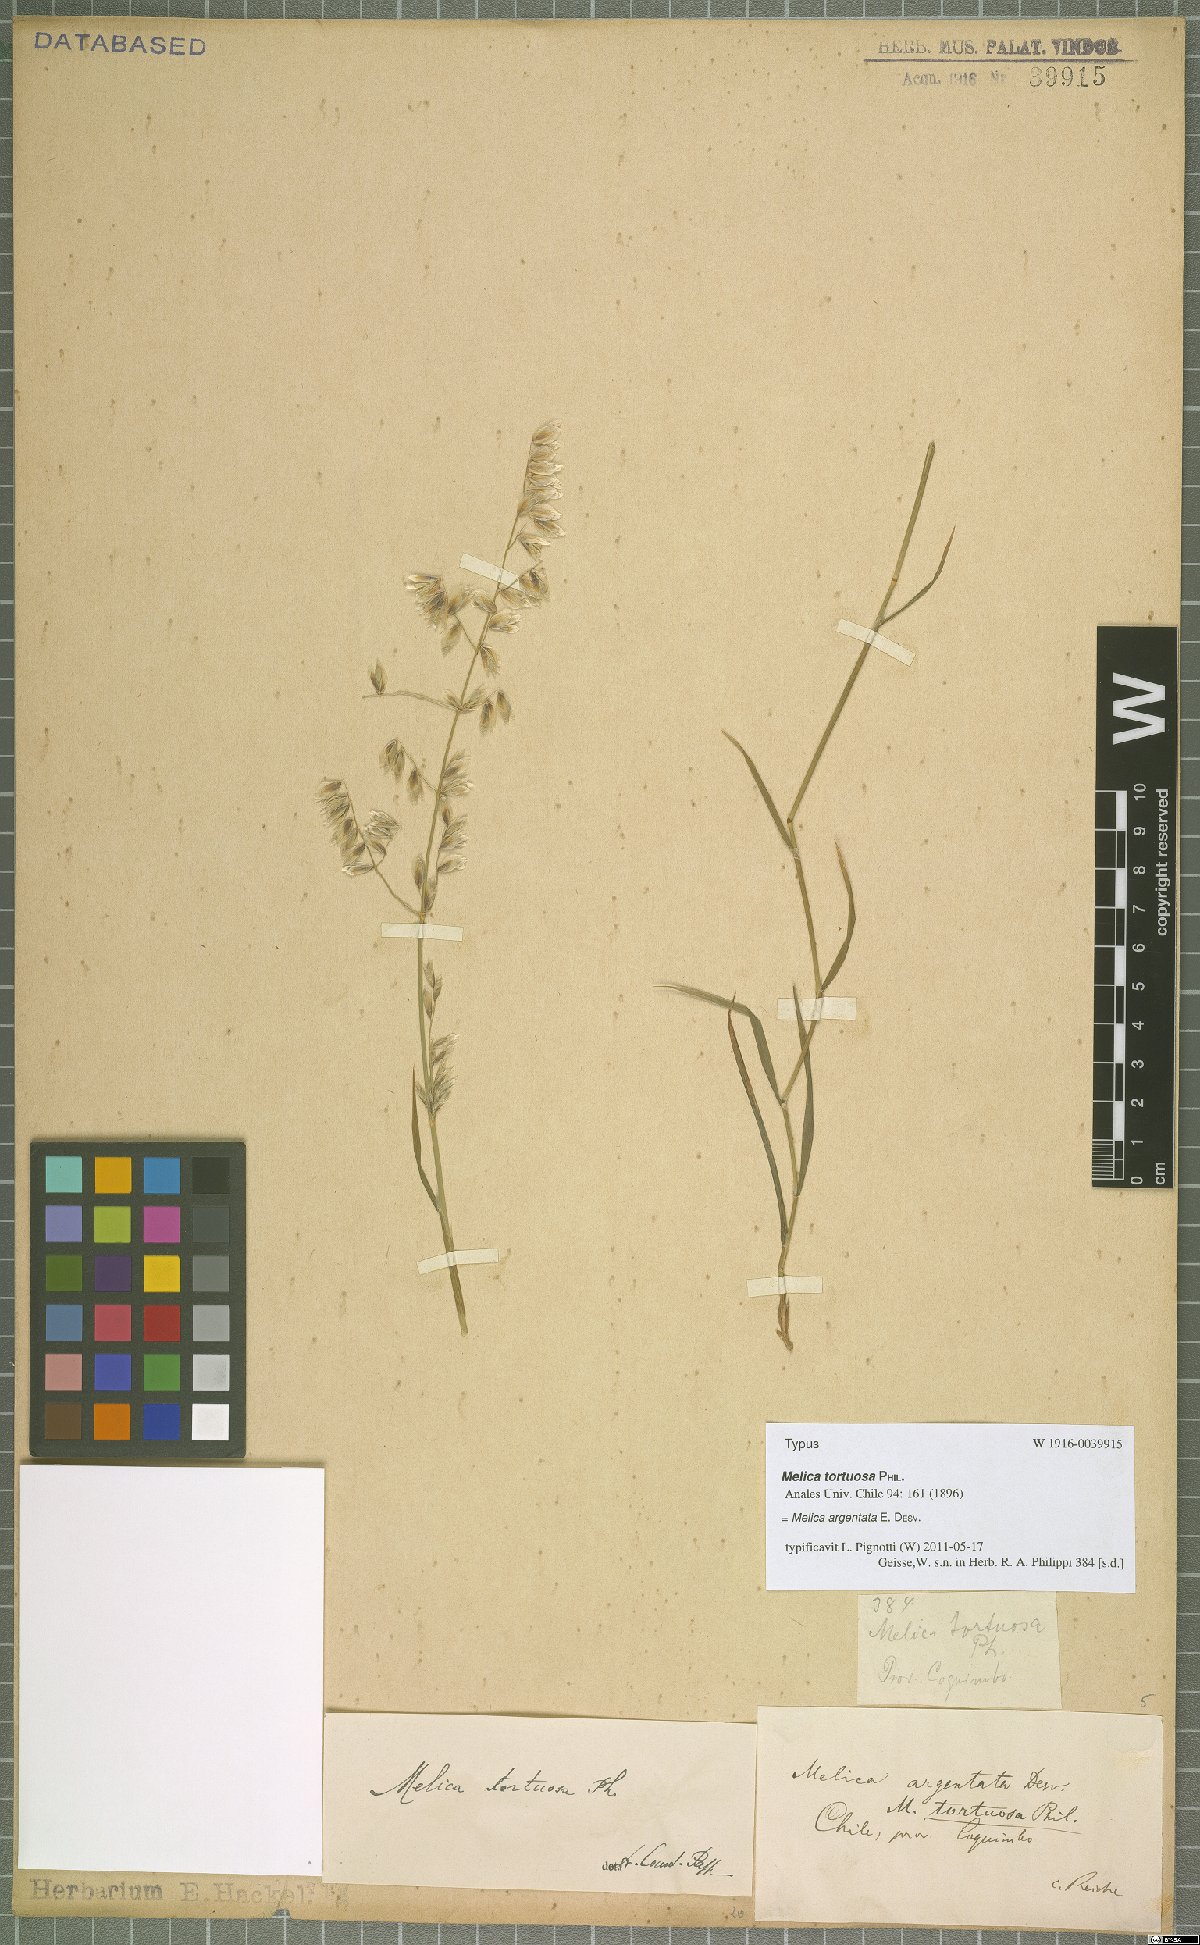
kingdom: Plantae
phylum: Tracheophyta
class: Liliopsida
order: Poales
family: Poaceae
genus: Melica
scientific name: Melica argentata
